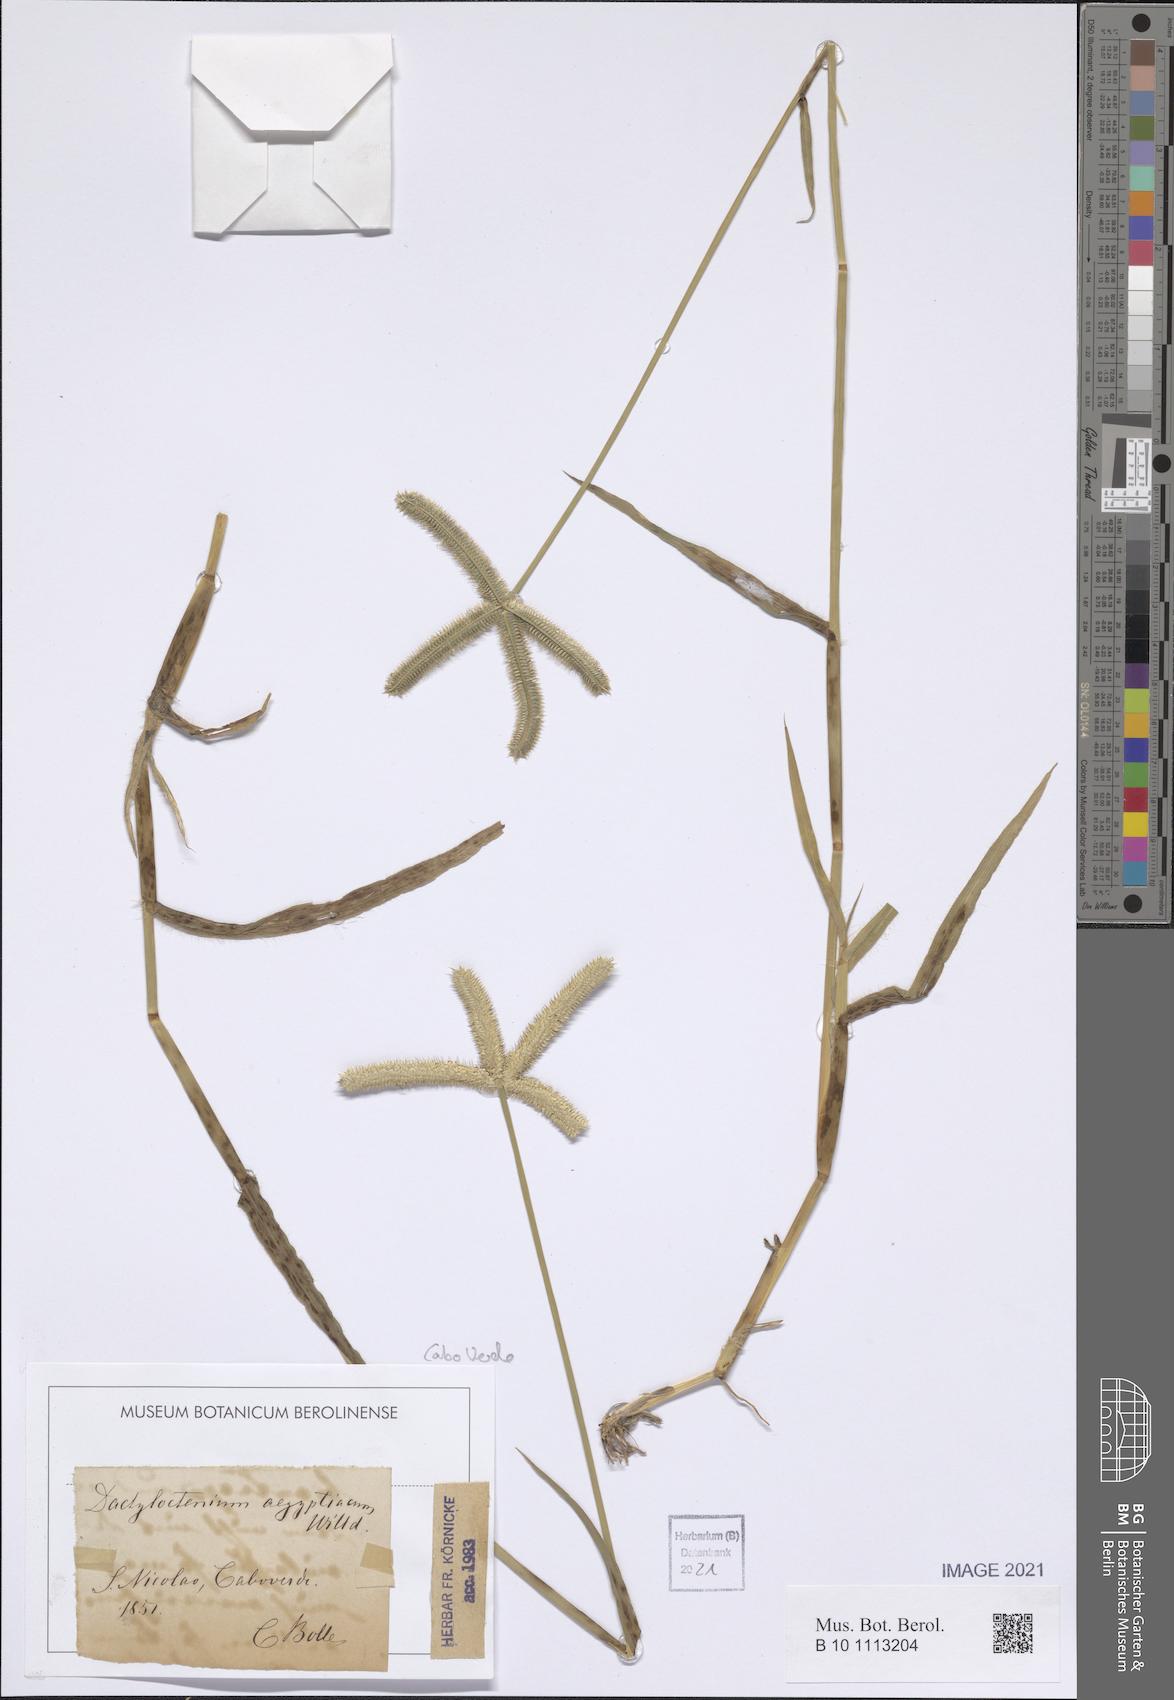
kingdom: Plantae
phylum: Tracheophyta
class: Liliopsida
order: Poales
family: Poaceae
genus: Dactyloctenium
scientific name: Dactyloctenium aegyptium
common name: Egyptian grass
